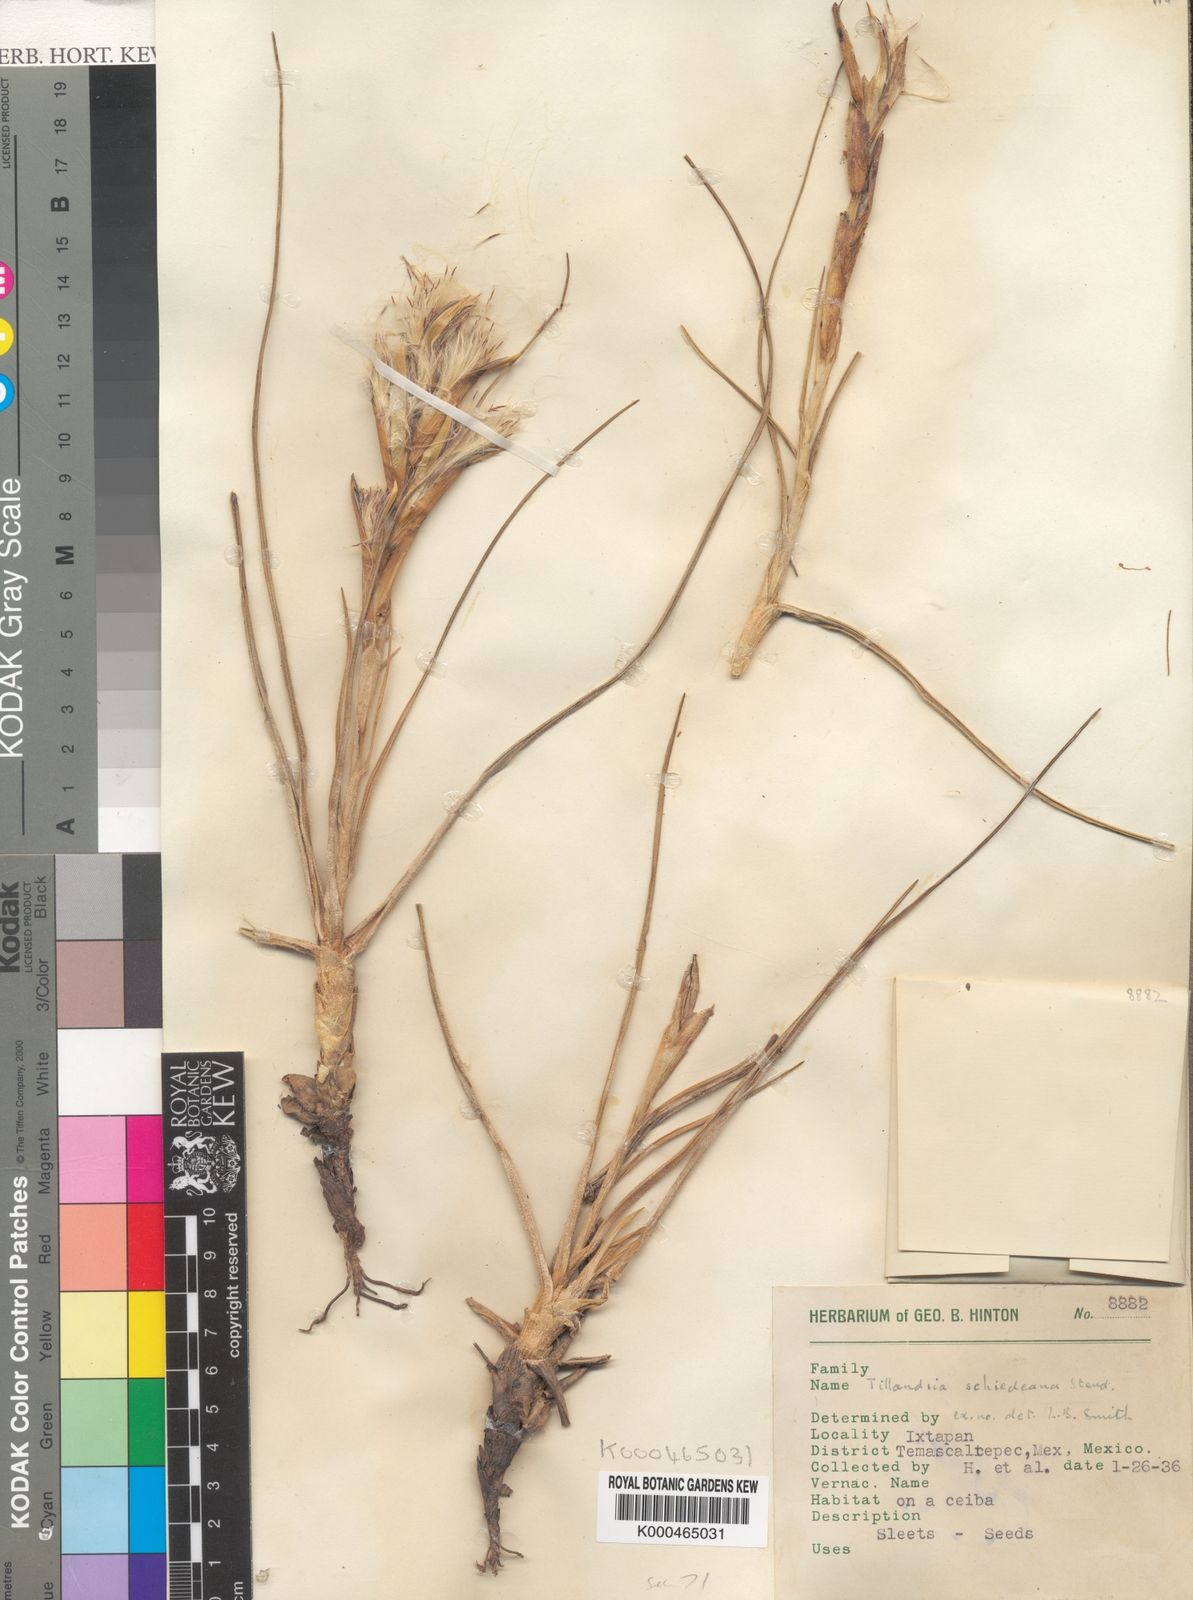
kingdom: Plantae
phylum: Tracheophyta
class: Liliopsida
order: Poales
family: Bromeliaceae
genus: Tillandsia
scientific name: Tillandsia schiedeana
